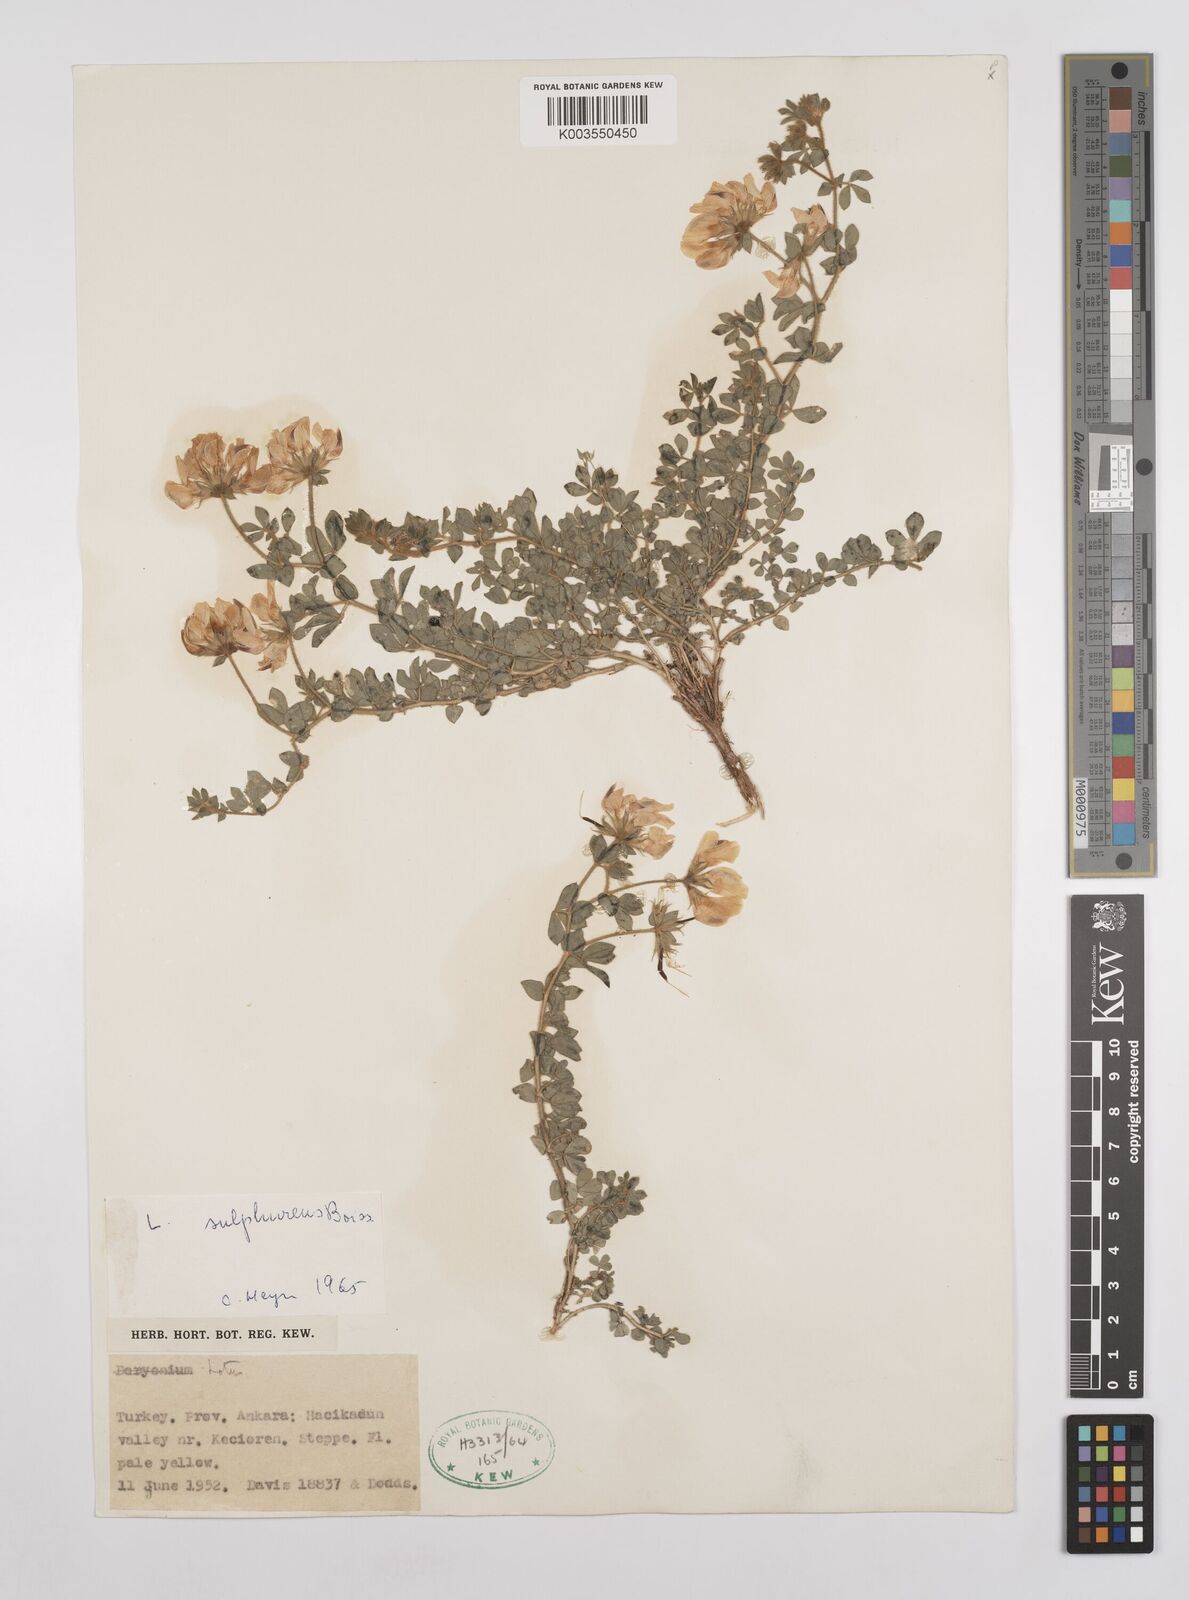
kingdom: Plantae
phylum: Tracheophyta
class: Magnoliopsida
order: Fabales
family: Fabaceae
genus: Lotus
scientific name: Lotus aegaeus
